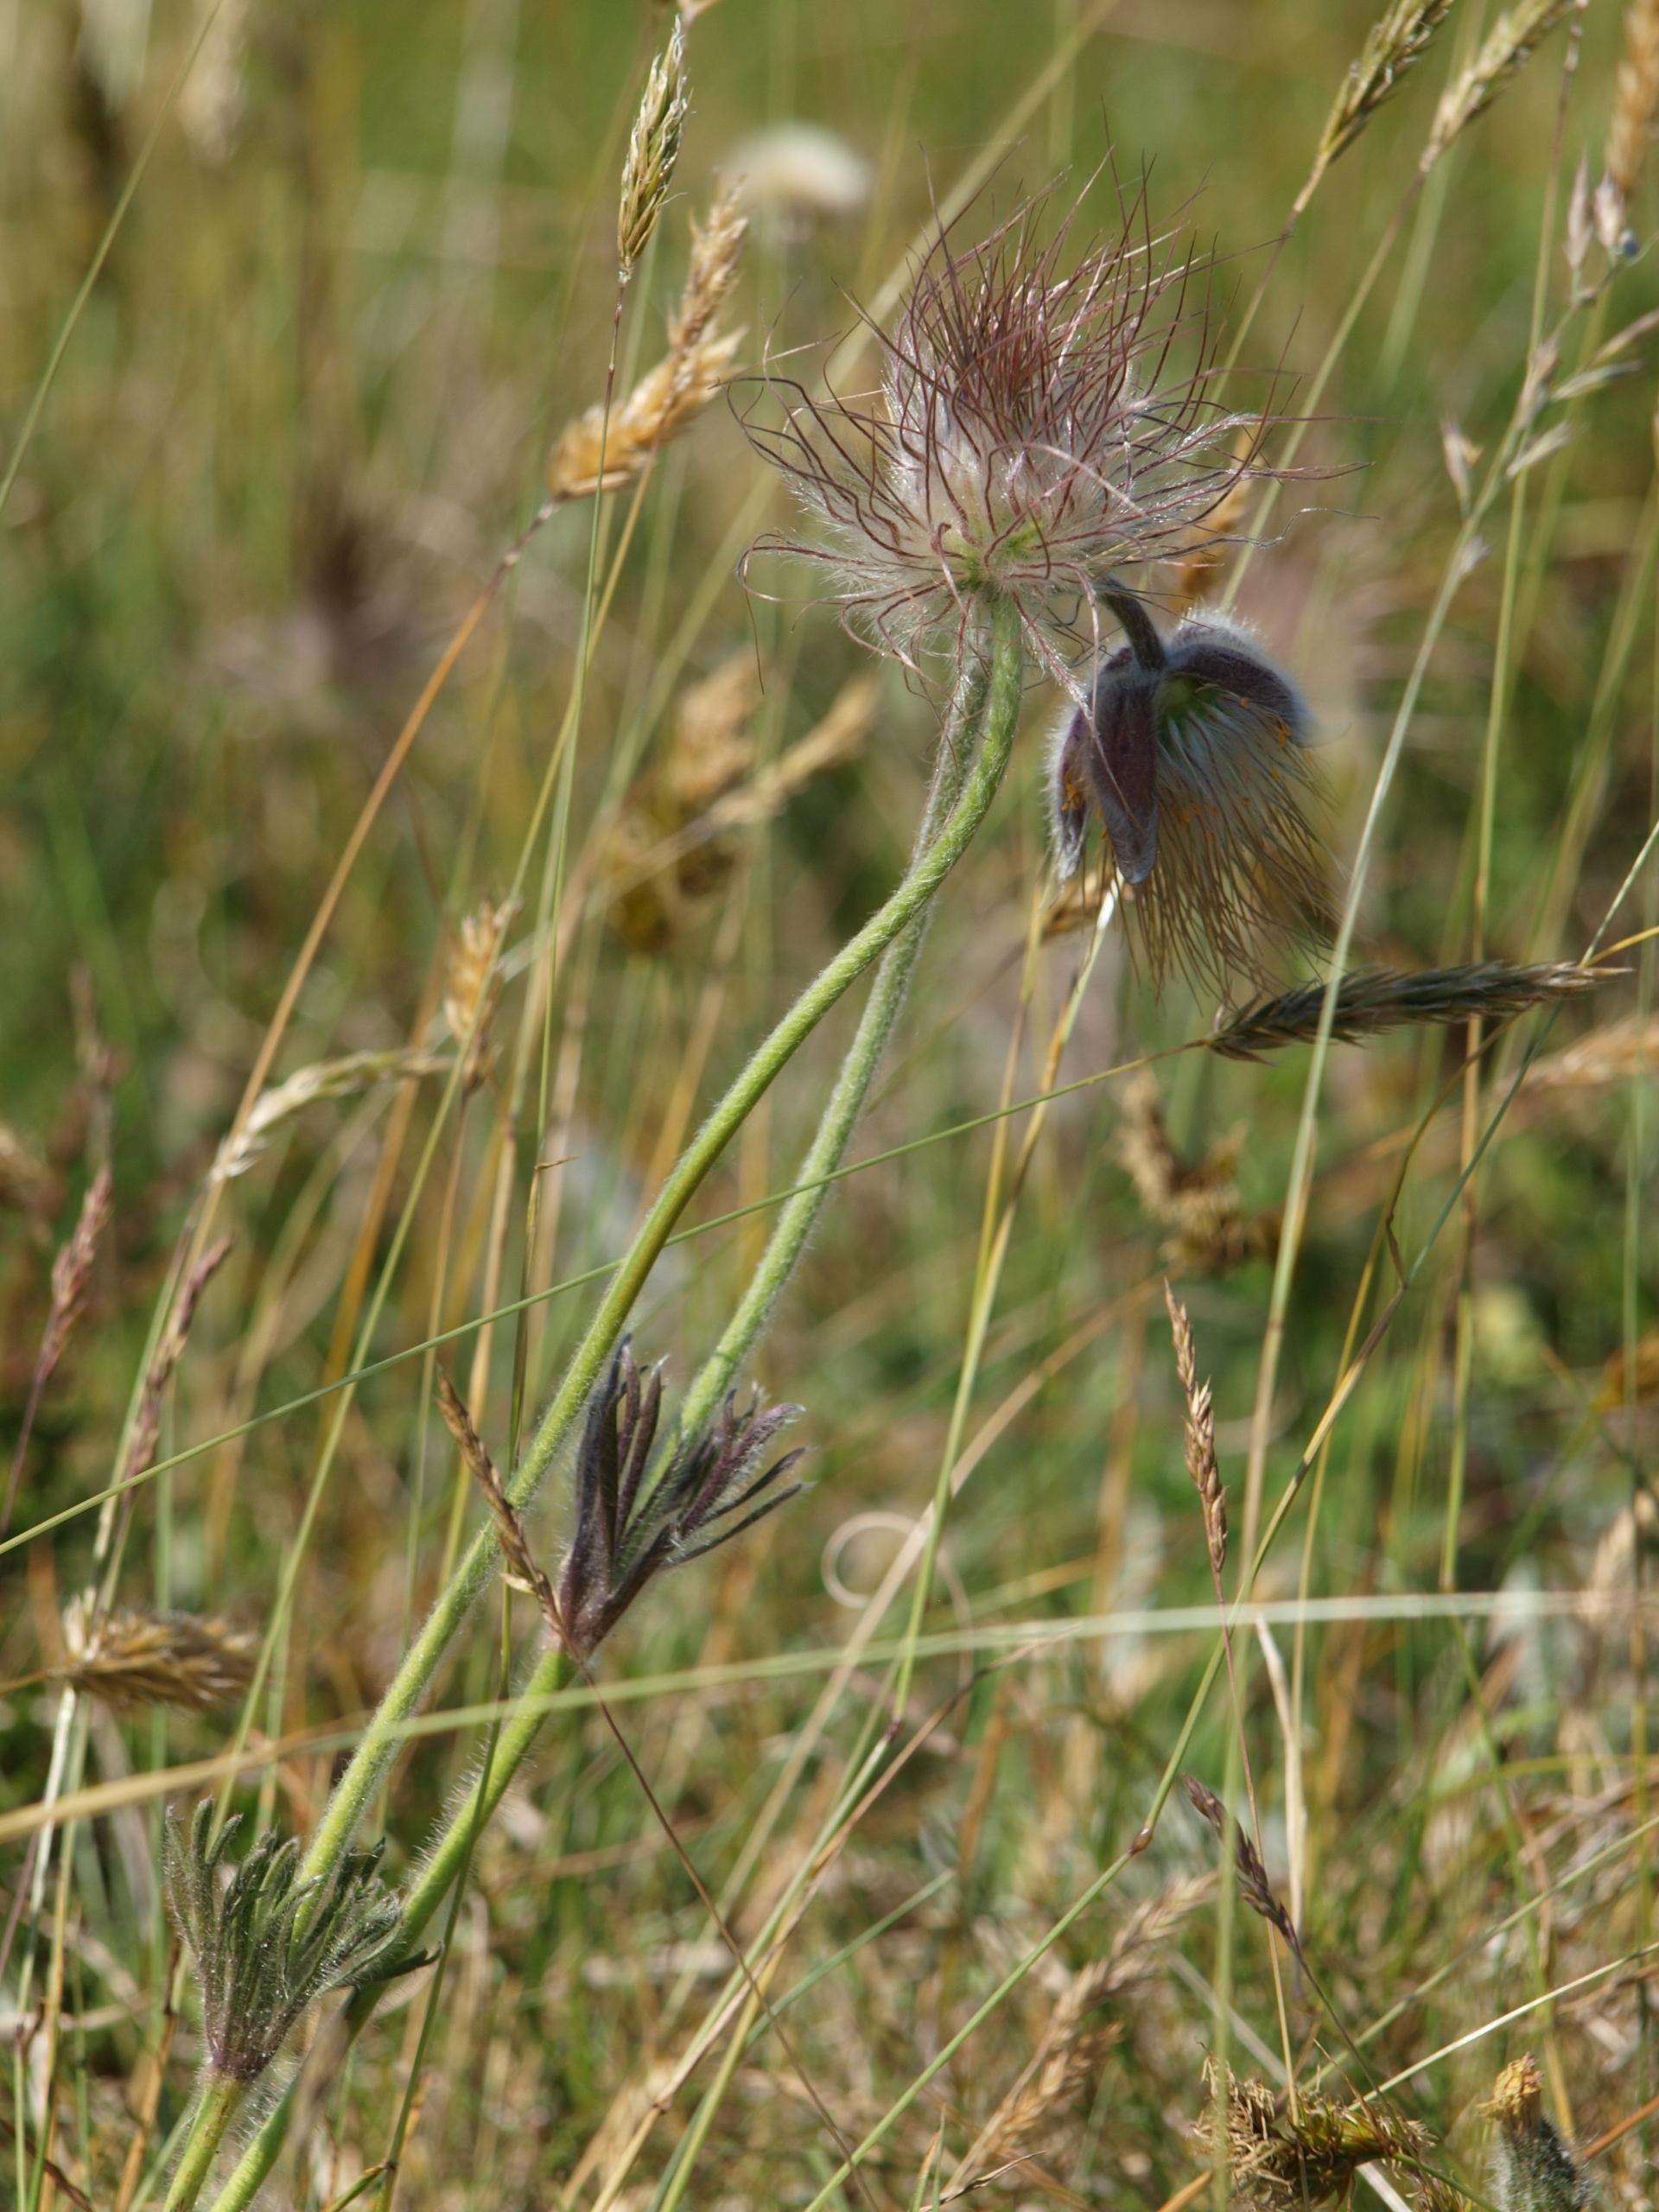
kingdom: Plantae
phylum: Tracheophyta
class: Magnoliopsida
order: Ranunculales
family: Ranunculaceae
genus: Pulsatilla
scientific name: Pulsatilla pratensis
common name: Nikkende kobjælde
